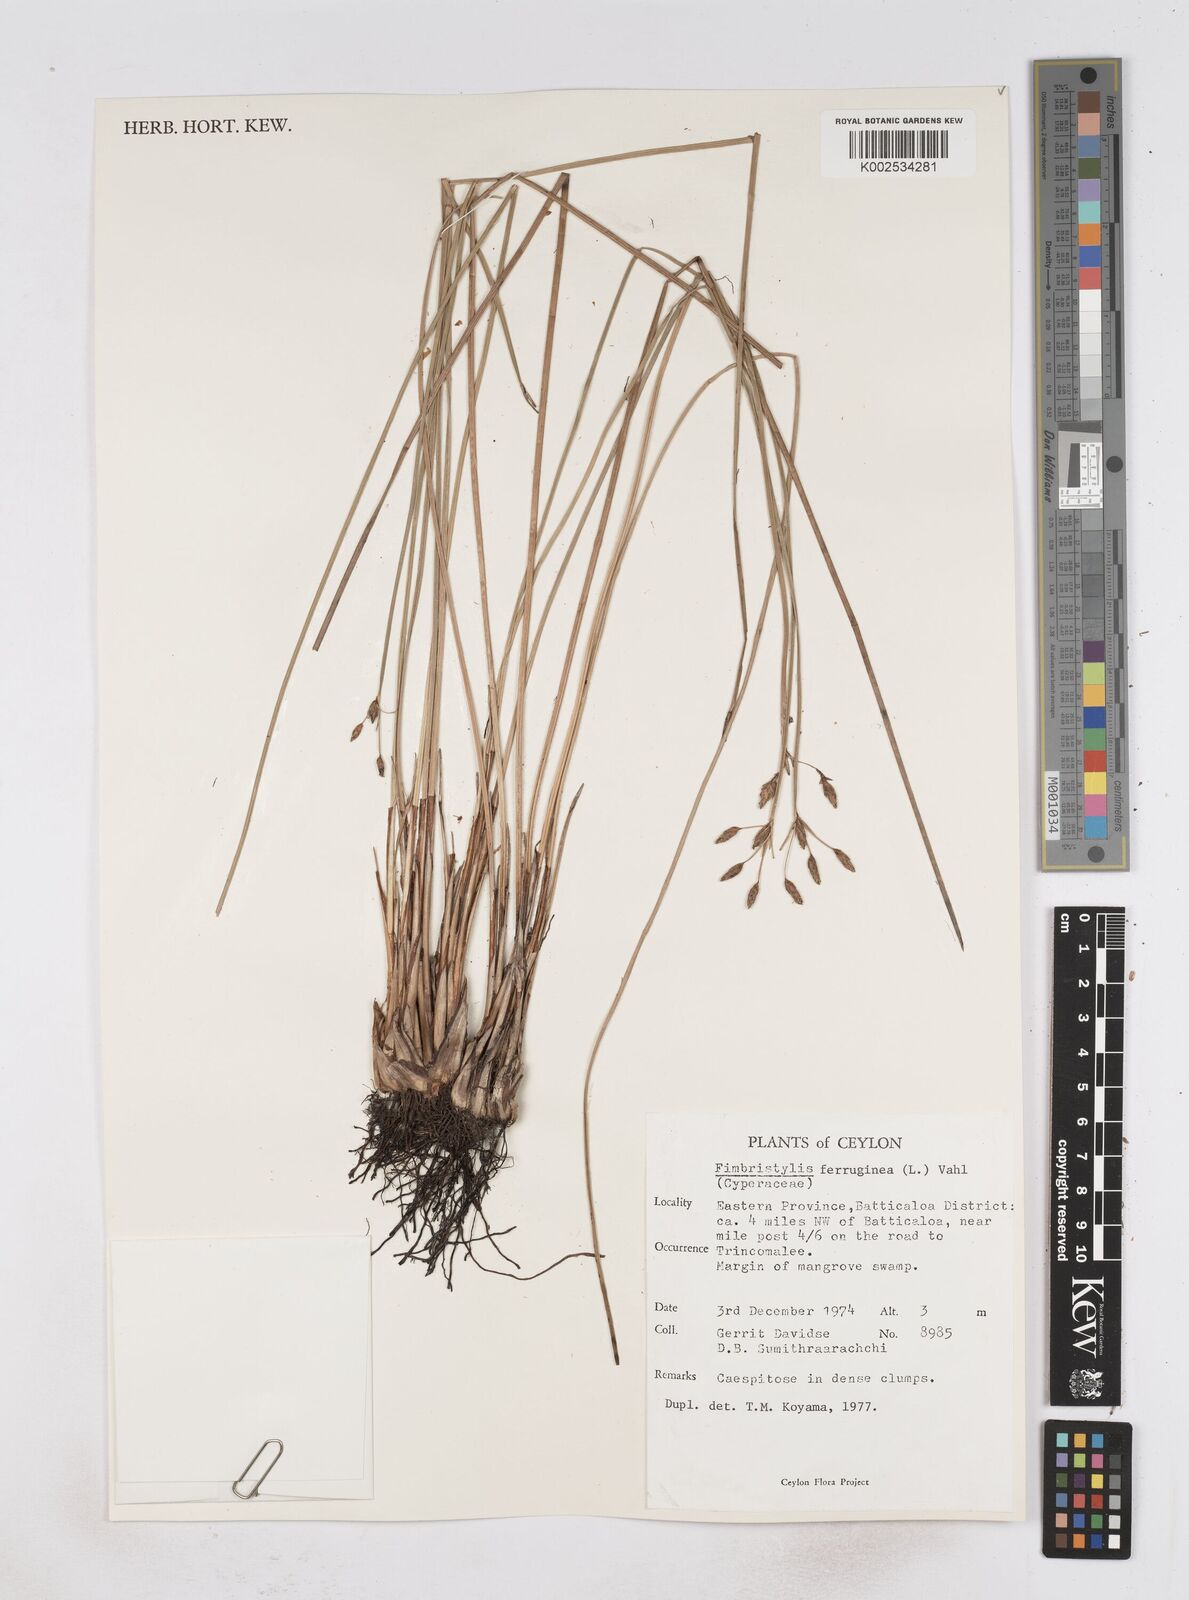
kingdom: Plantae
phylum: Tracheophyta
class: Liliopsida
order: Poales
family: Cyperaceae
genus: Fimbristylis
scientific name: Fimbristylis ferruginea
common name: West indian fimbry
